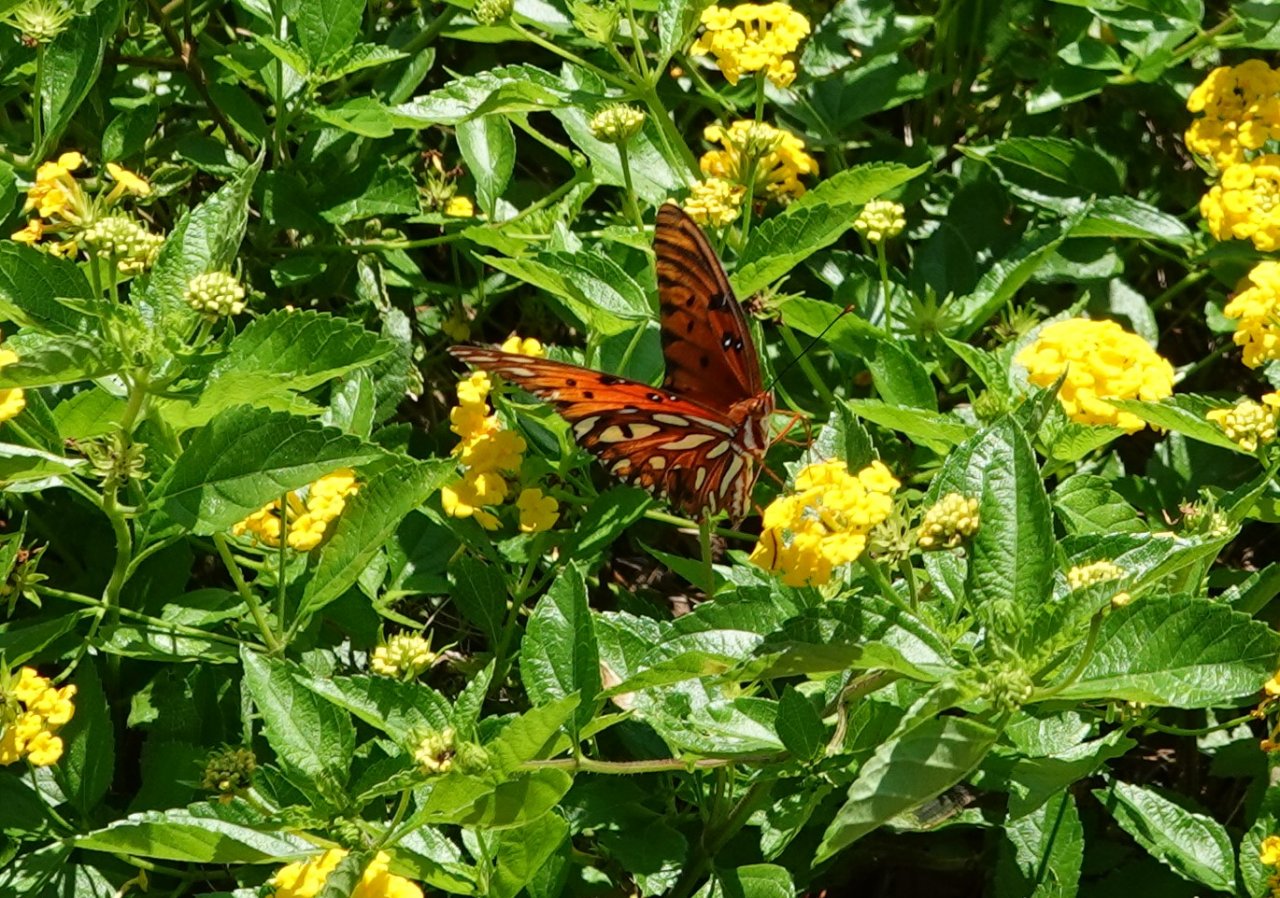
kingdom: Animalia
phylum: Arthropoda
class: Insecta
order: Lepidoptera
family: Nymphalidae
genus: Dione
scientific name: Dione vanillae
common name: Gulf Fritillary
